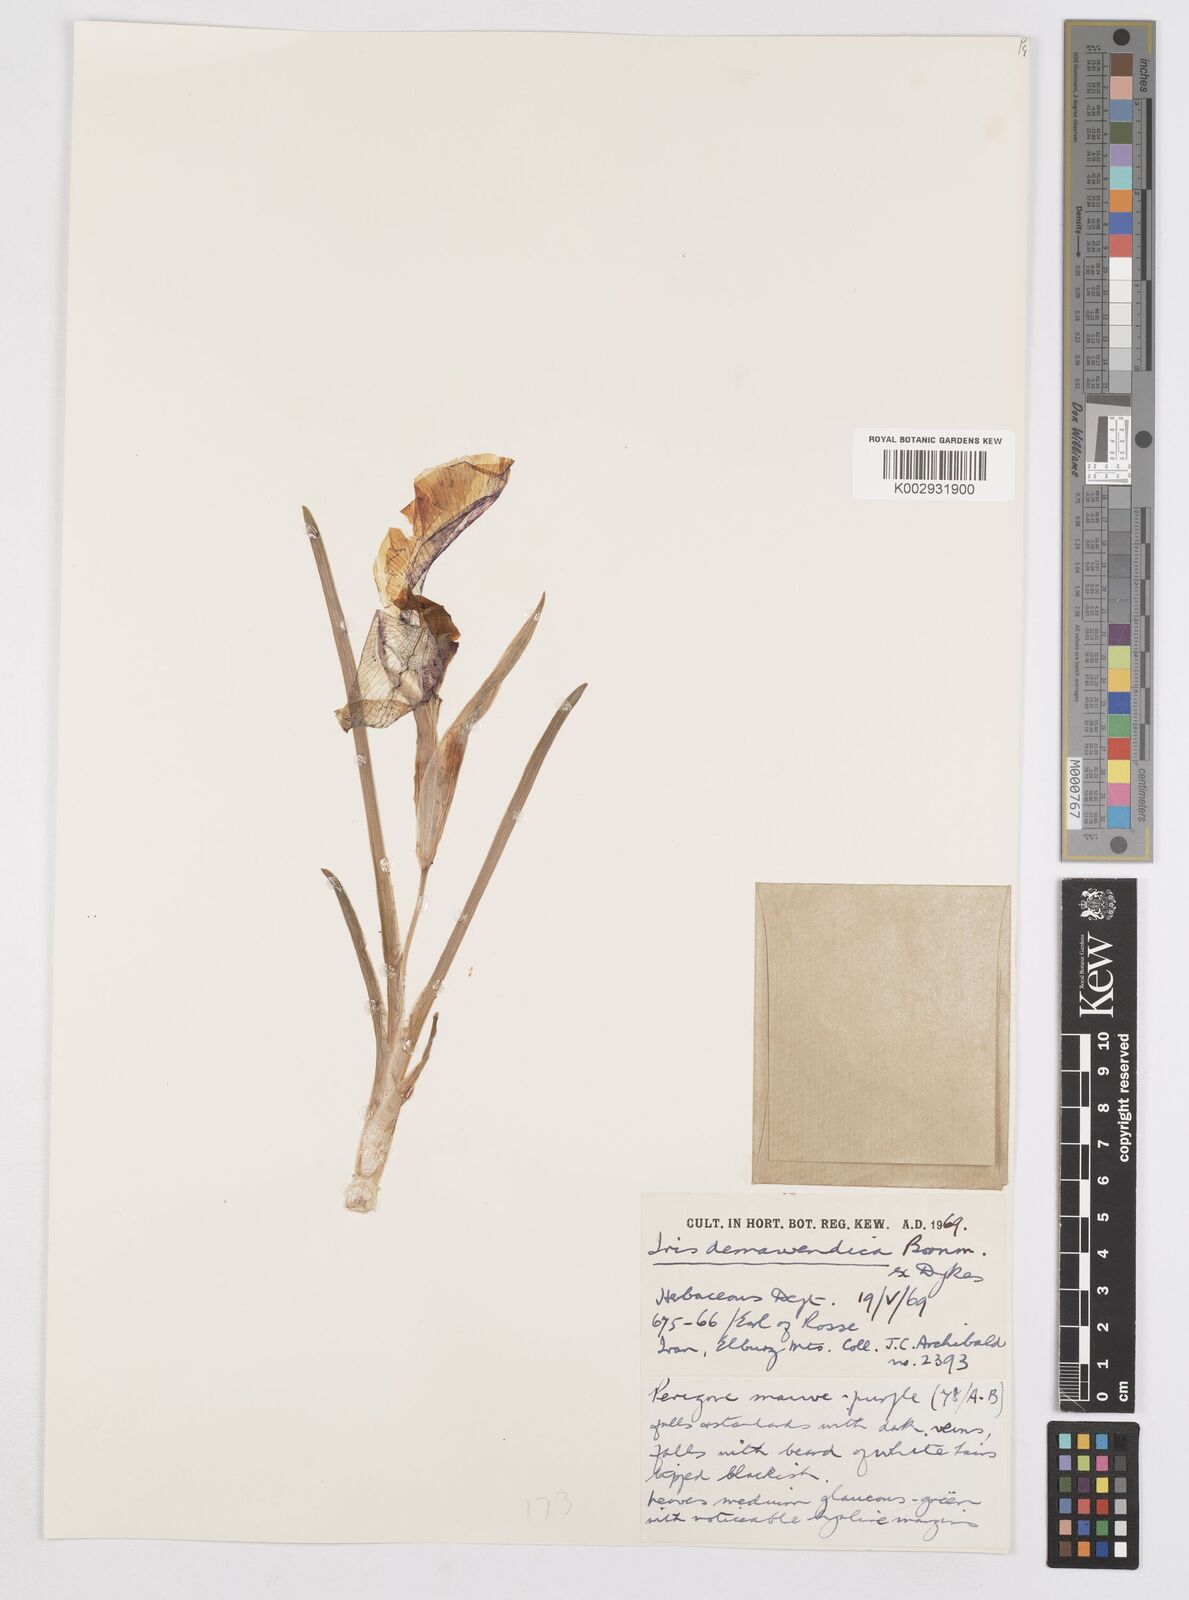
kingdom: Plantae
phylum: Tracheophyta
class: Liliopsida
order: Asparagales
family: Iridaceae
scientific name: Iridaceae
